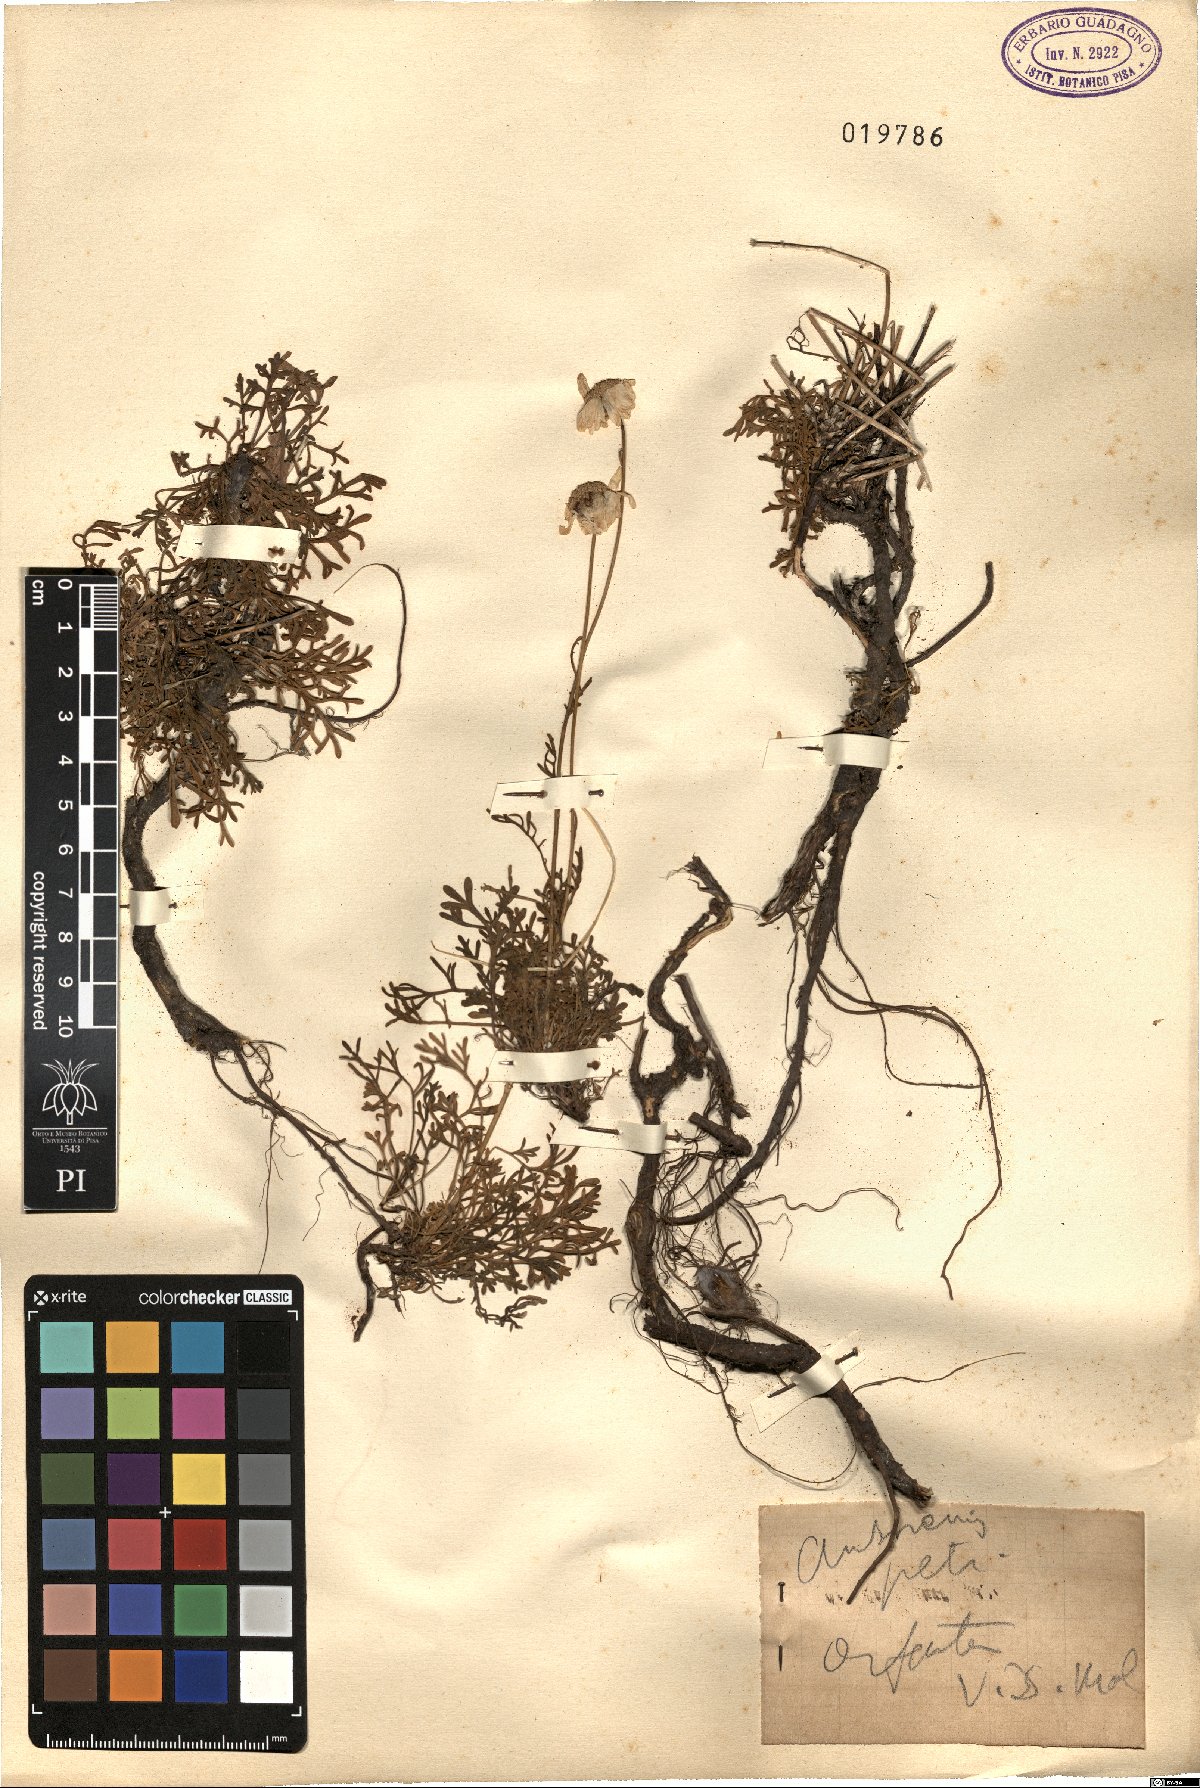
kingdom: Plantae
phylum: Tracheophyta
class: Magnoliopsida
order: Asterales
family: Asteraceae
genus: Anthemis
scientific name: Anthemis cretica
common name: Mountain dog-daisy
